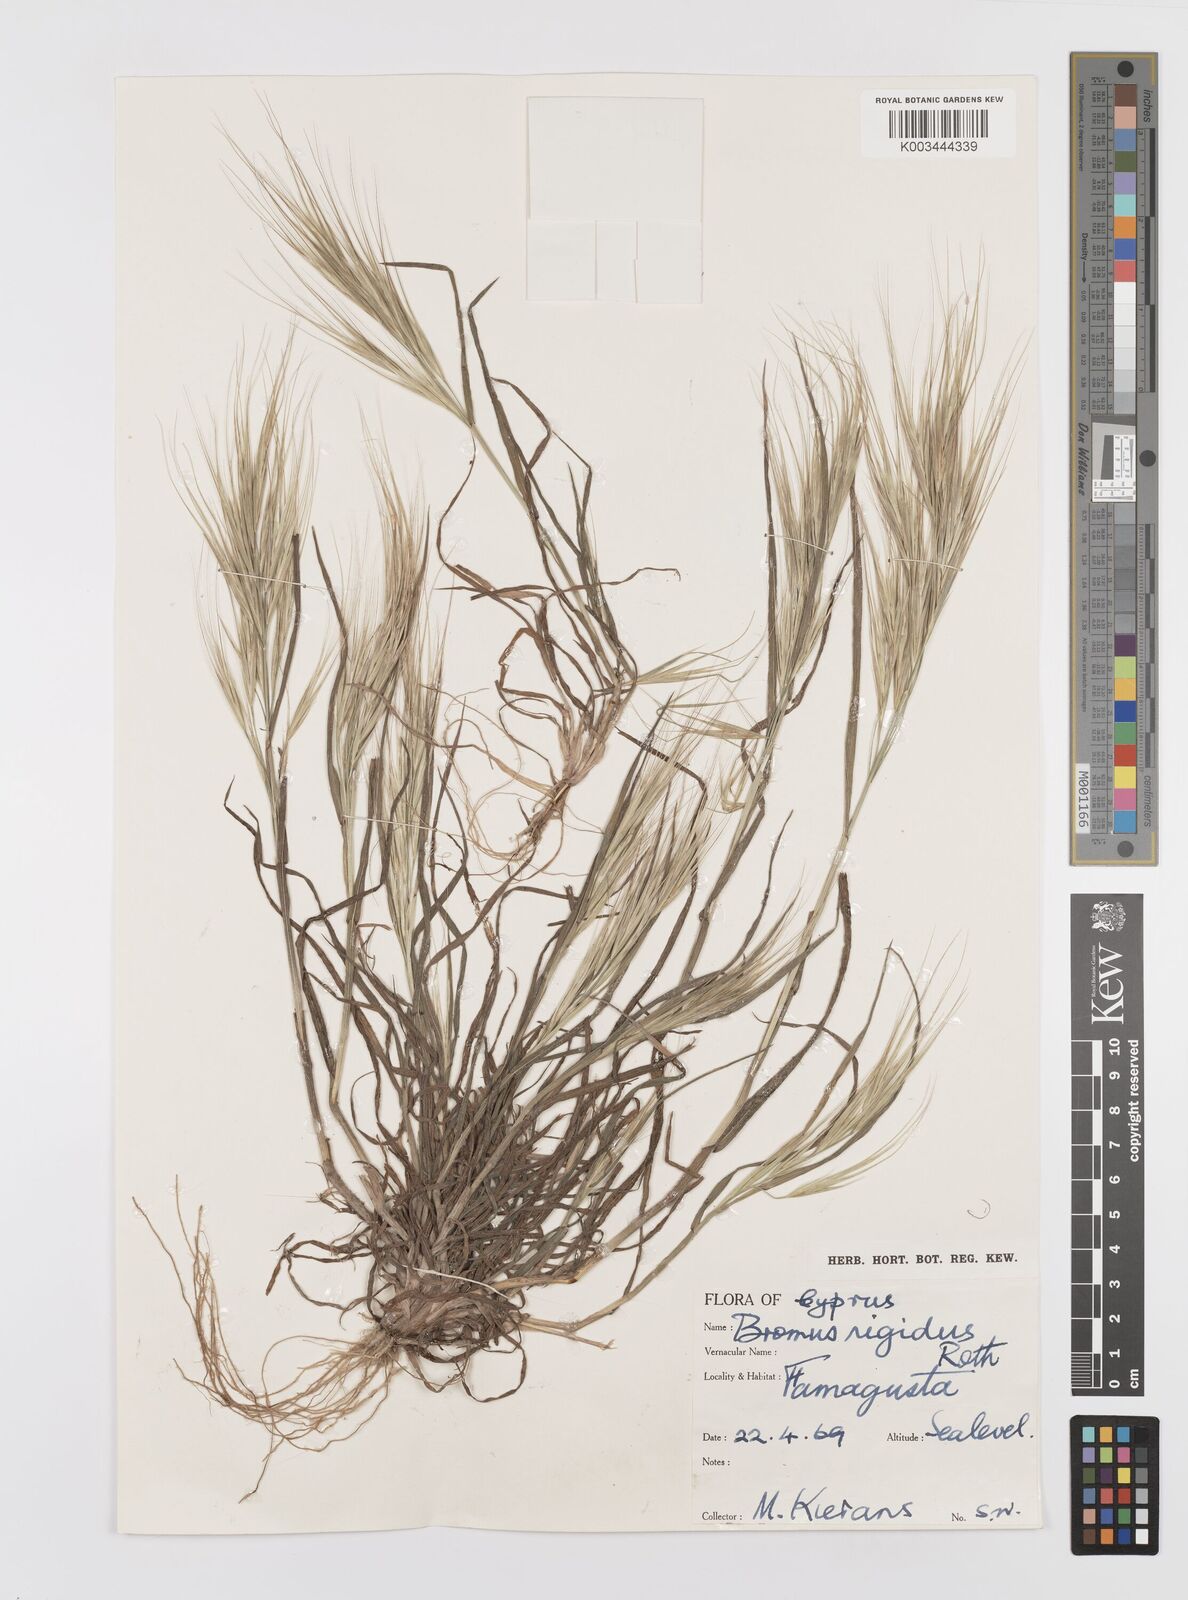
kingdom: Plantae
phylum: Tracheophyta
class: Liliopsida
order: Poales
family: Poaceae
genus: Bromus
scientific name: Bromus diandrus
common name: Ripgut brome
